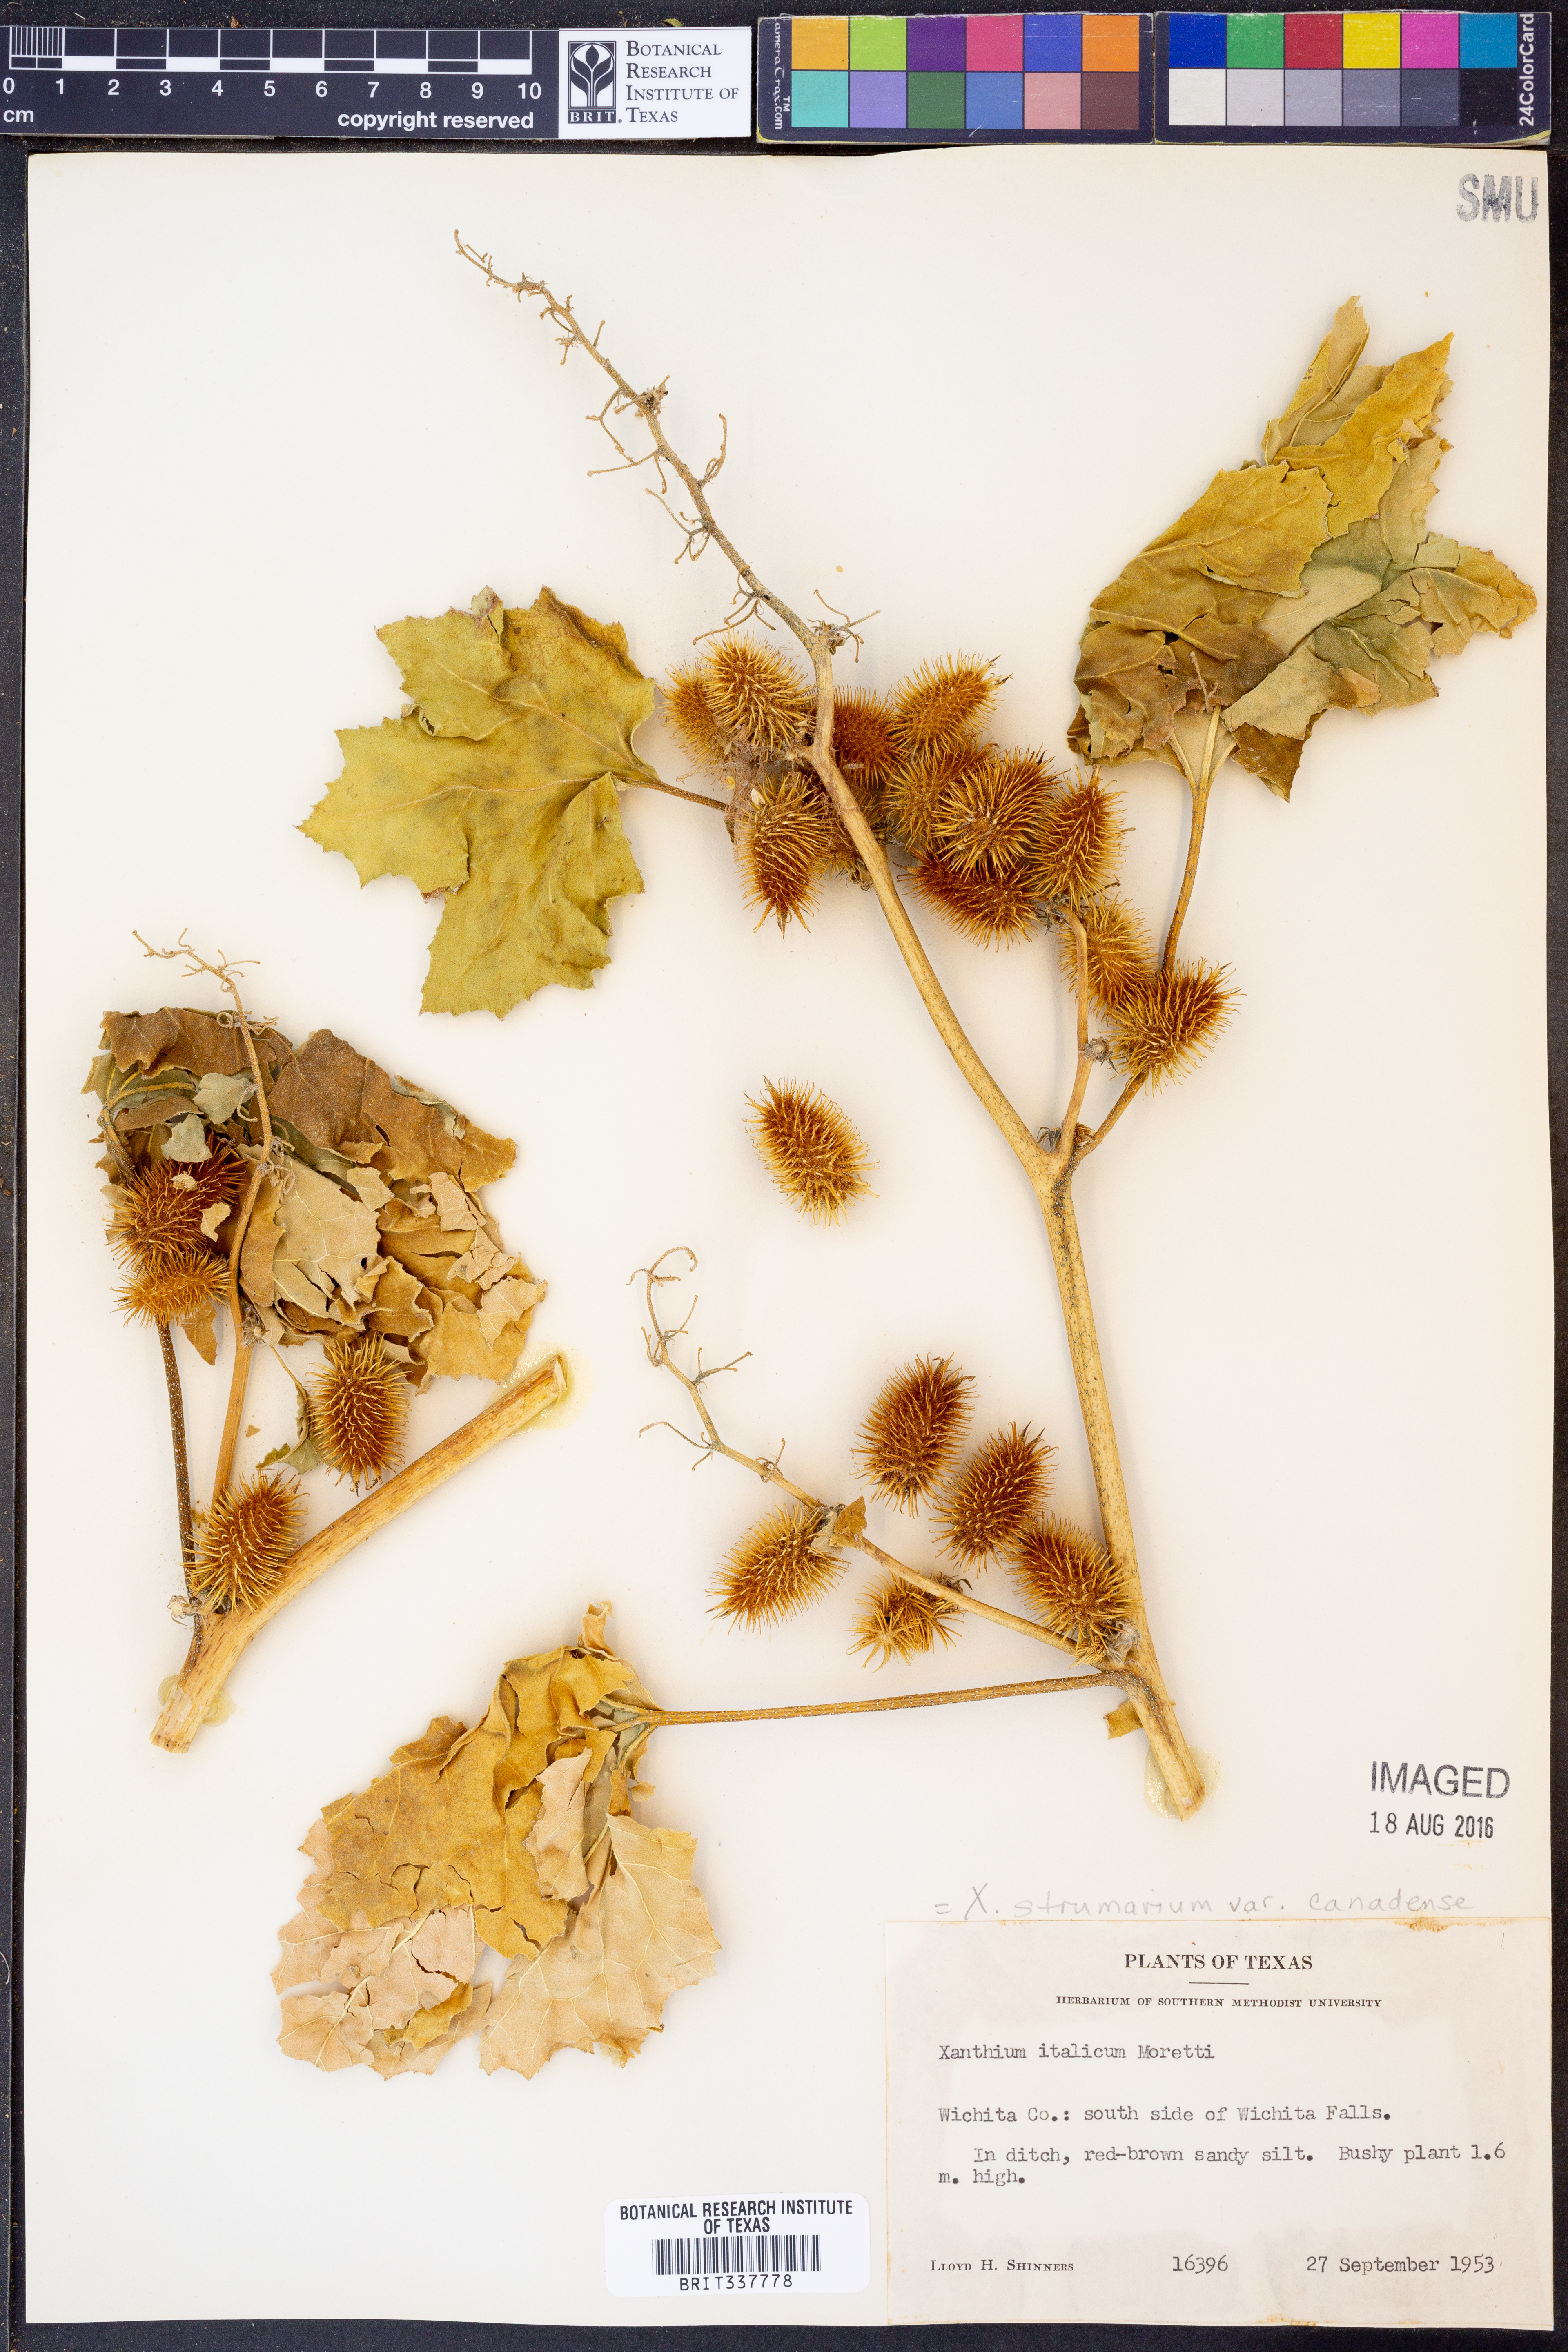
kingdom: Plantae
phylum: Tracheophyta
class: Magnoliopsida
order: Asterales
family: Asteraceae
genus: Xanthium
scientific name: Xanthium orientale
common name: Californian burr
